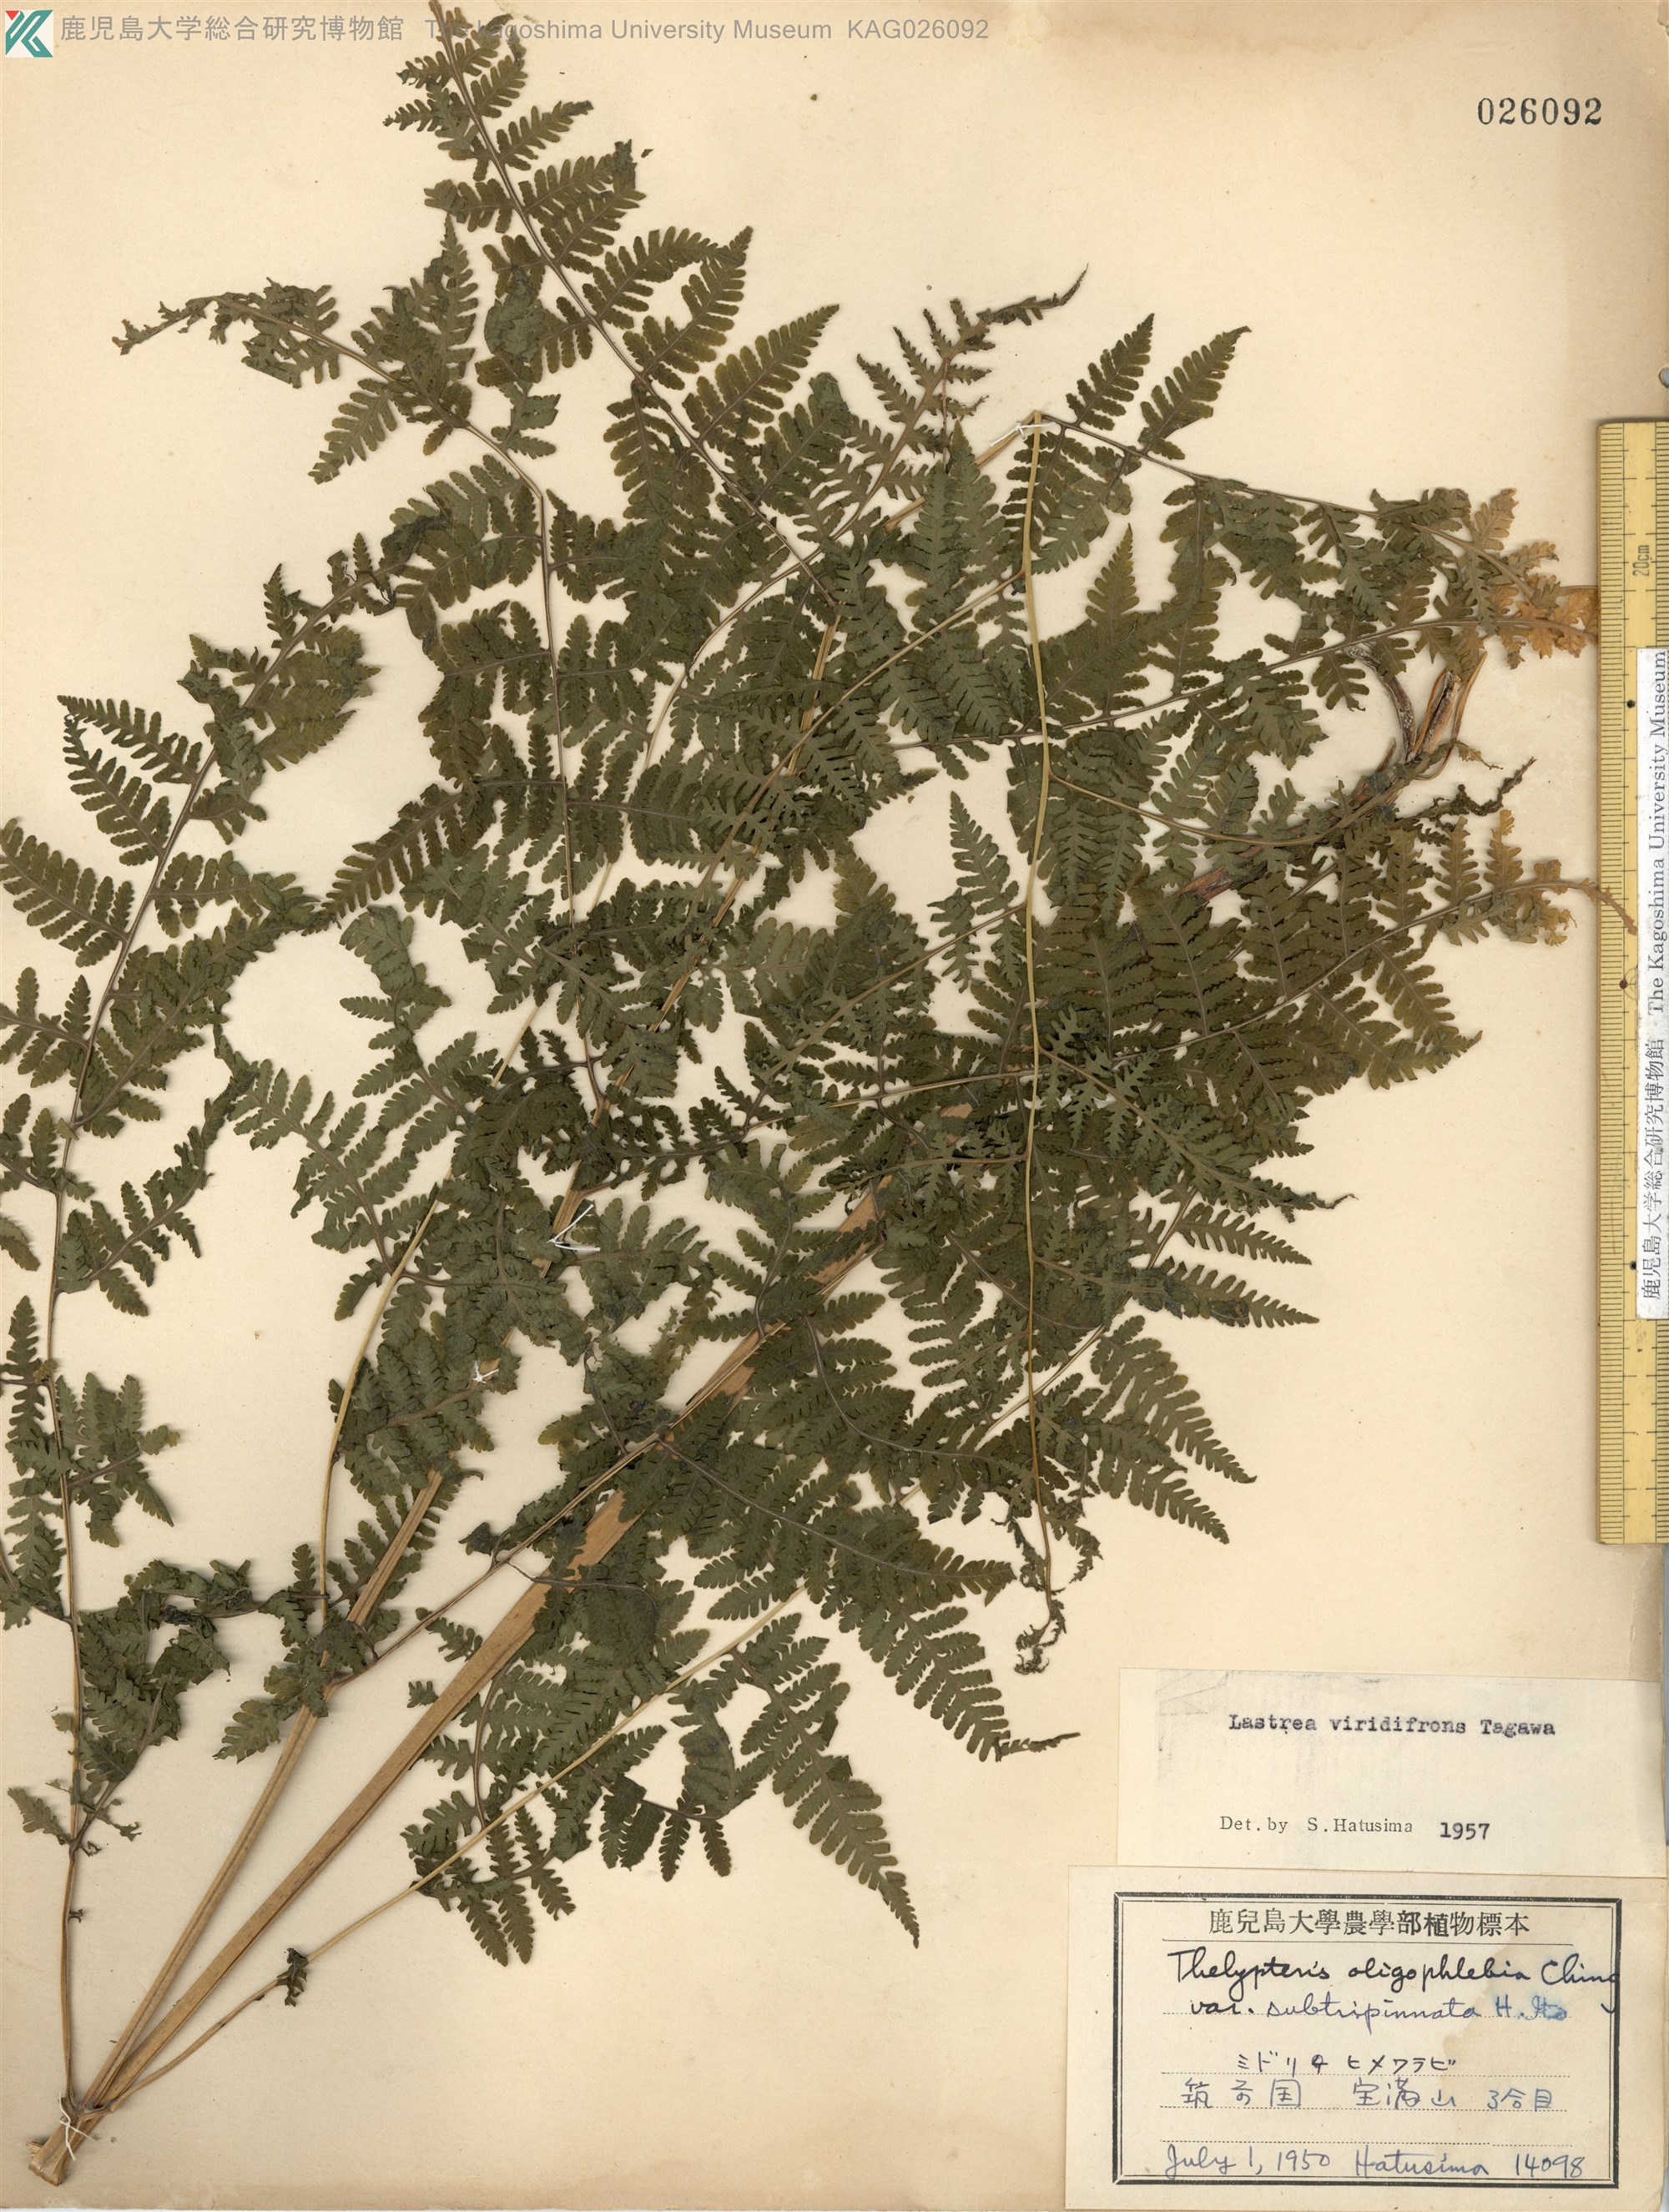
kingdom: Plantae
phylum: Tracheophyta
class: Polypodiopsida
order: Polypodiales
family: Thelypteridaceae
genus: Macrothelypteris
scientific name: Macrothelypteris viridifrons
